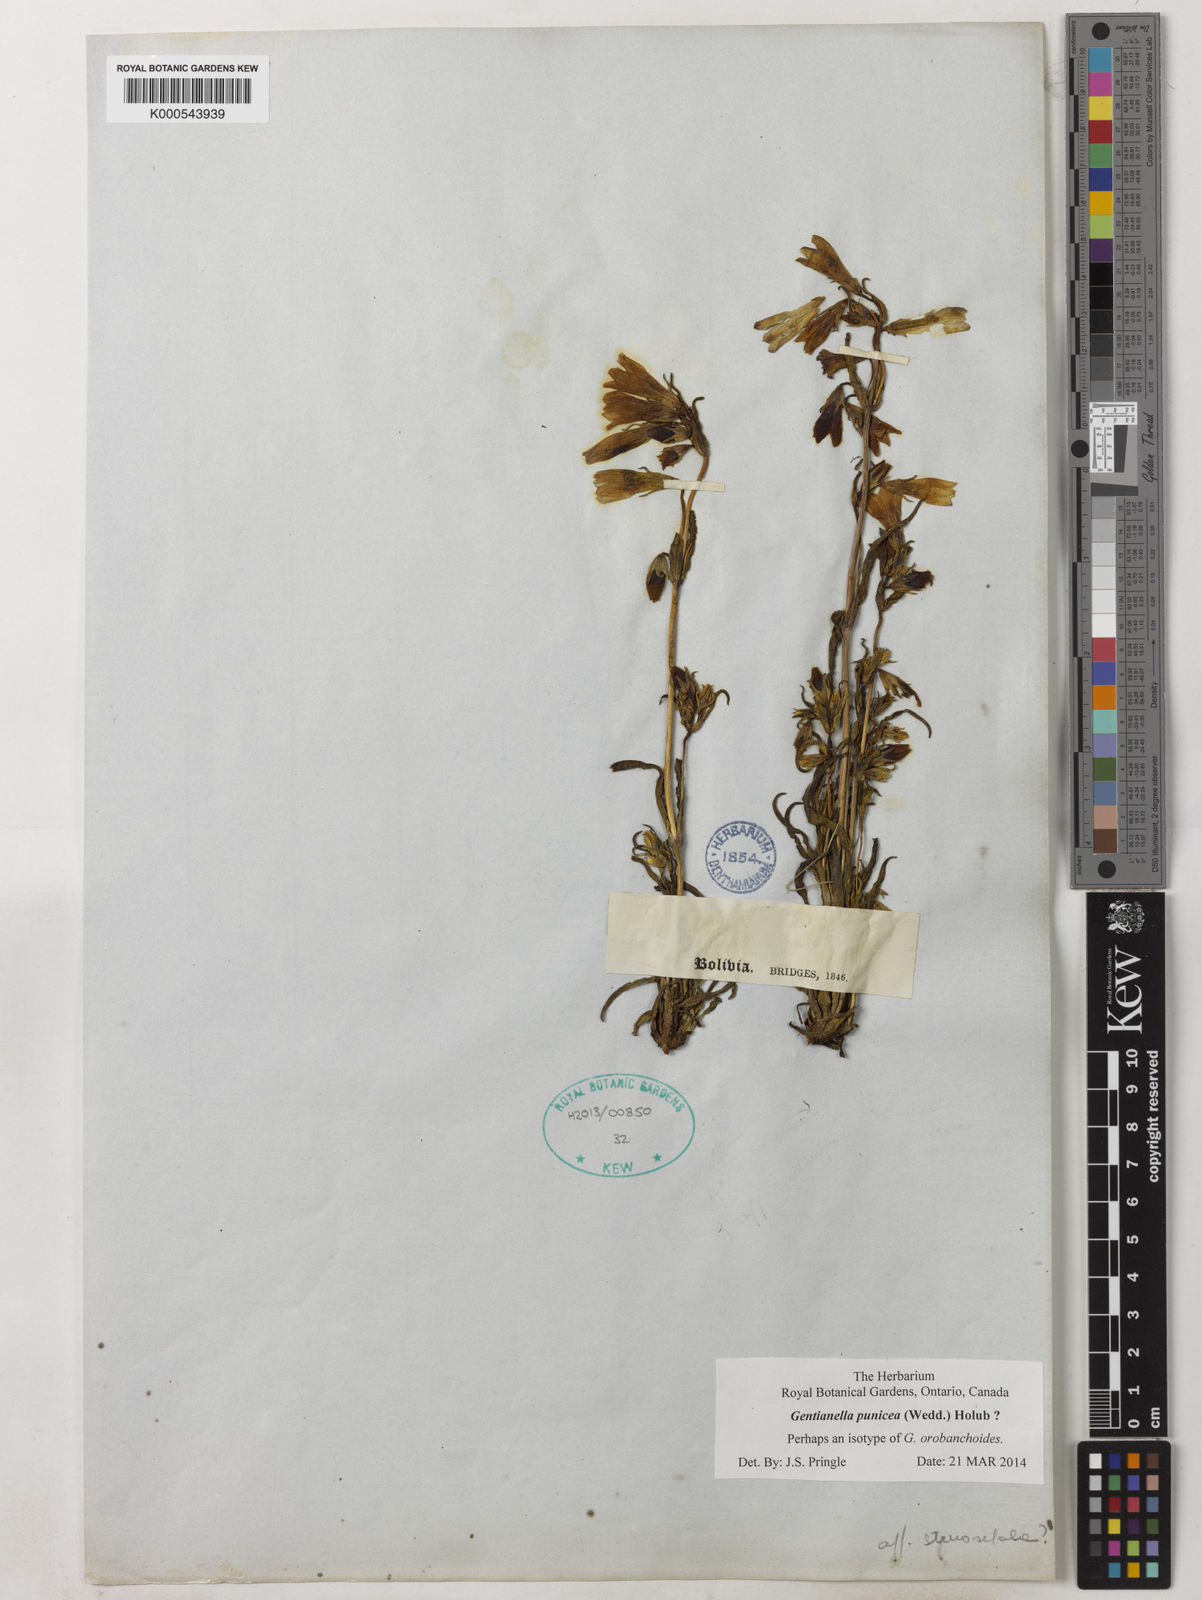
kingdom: Plantae
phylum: Tracheophyta
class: Magnoliopsida
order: Gentianales
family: Gentianaceae
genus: Gentianella
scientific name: Gentianella punicea
